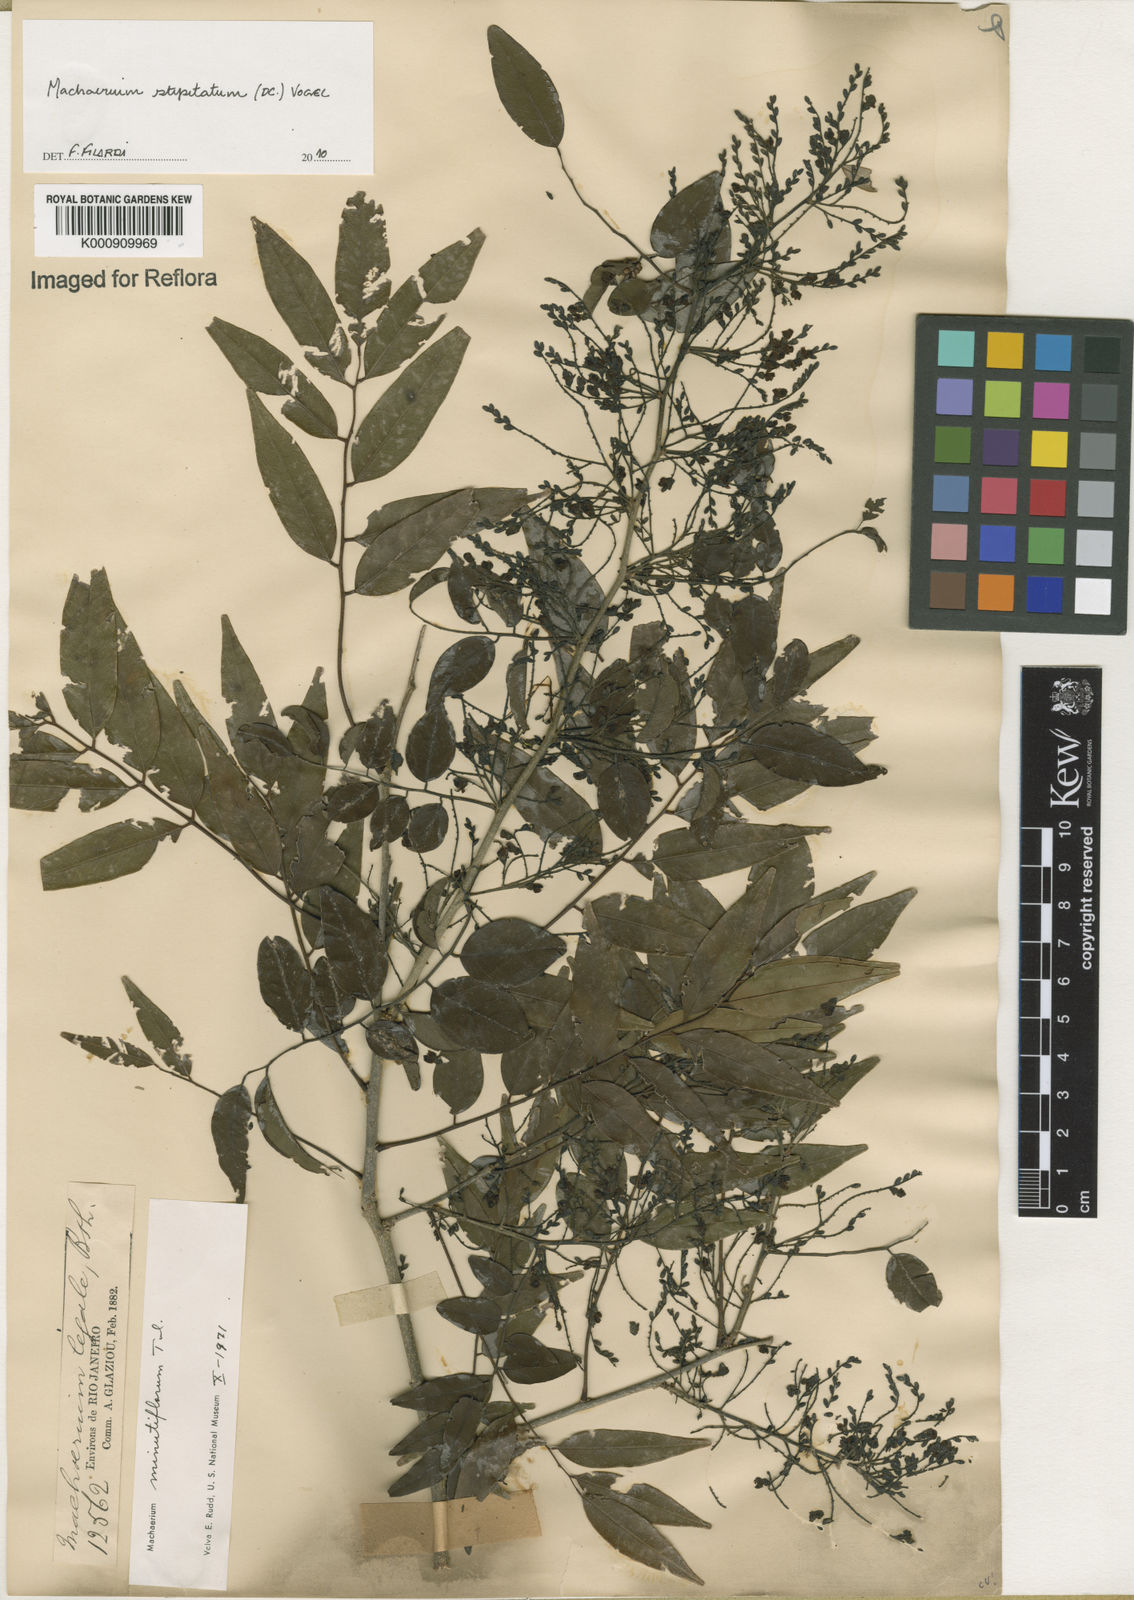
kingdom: Plantae
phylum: Tracheophyta
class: Magnoliopsida
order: Fabales
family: Fabaceae
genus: Machaerium
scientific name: Machaerium stipitatum
